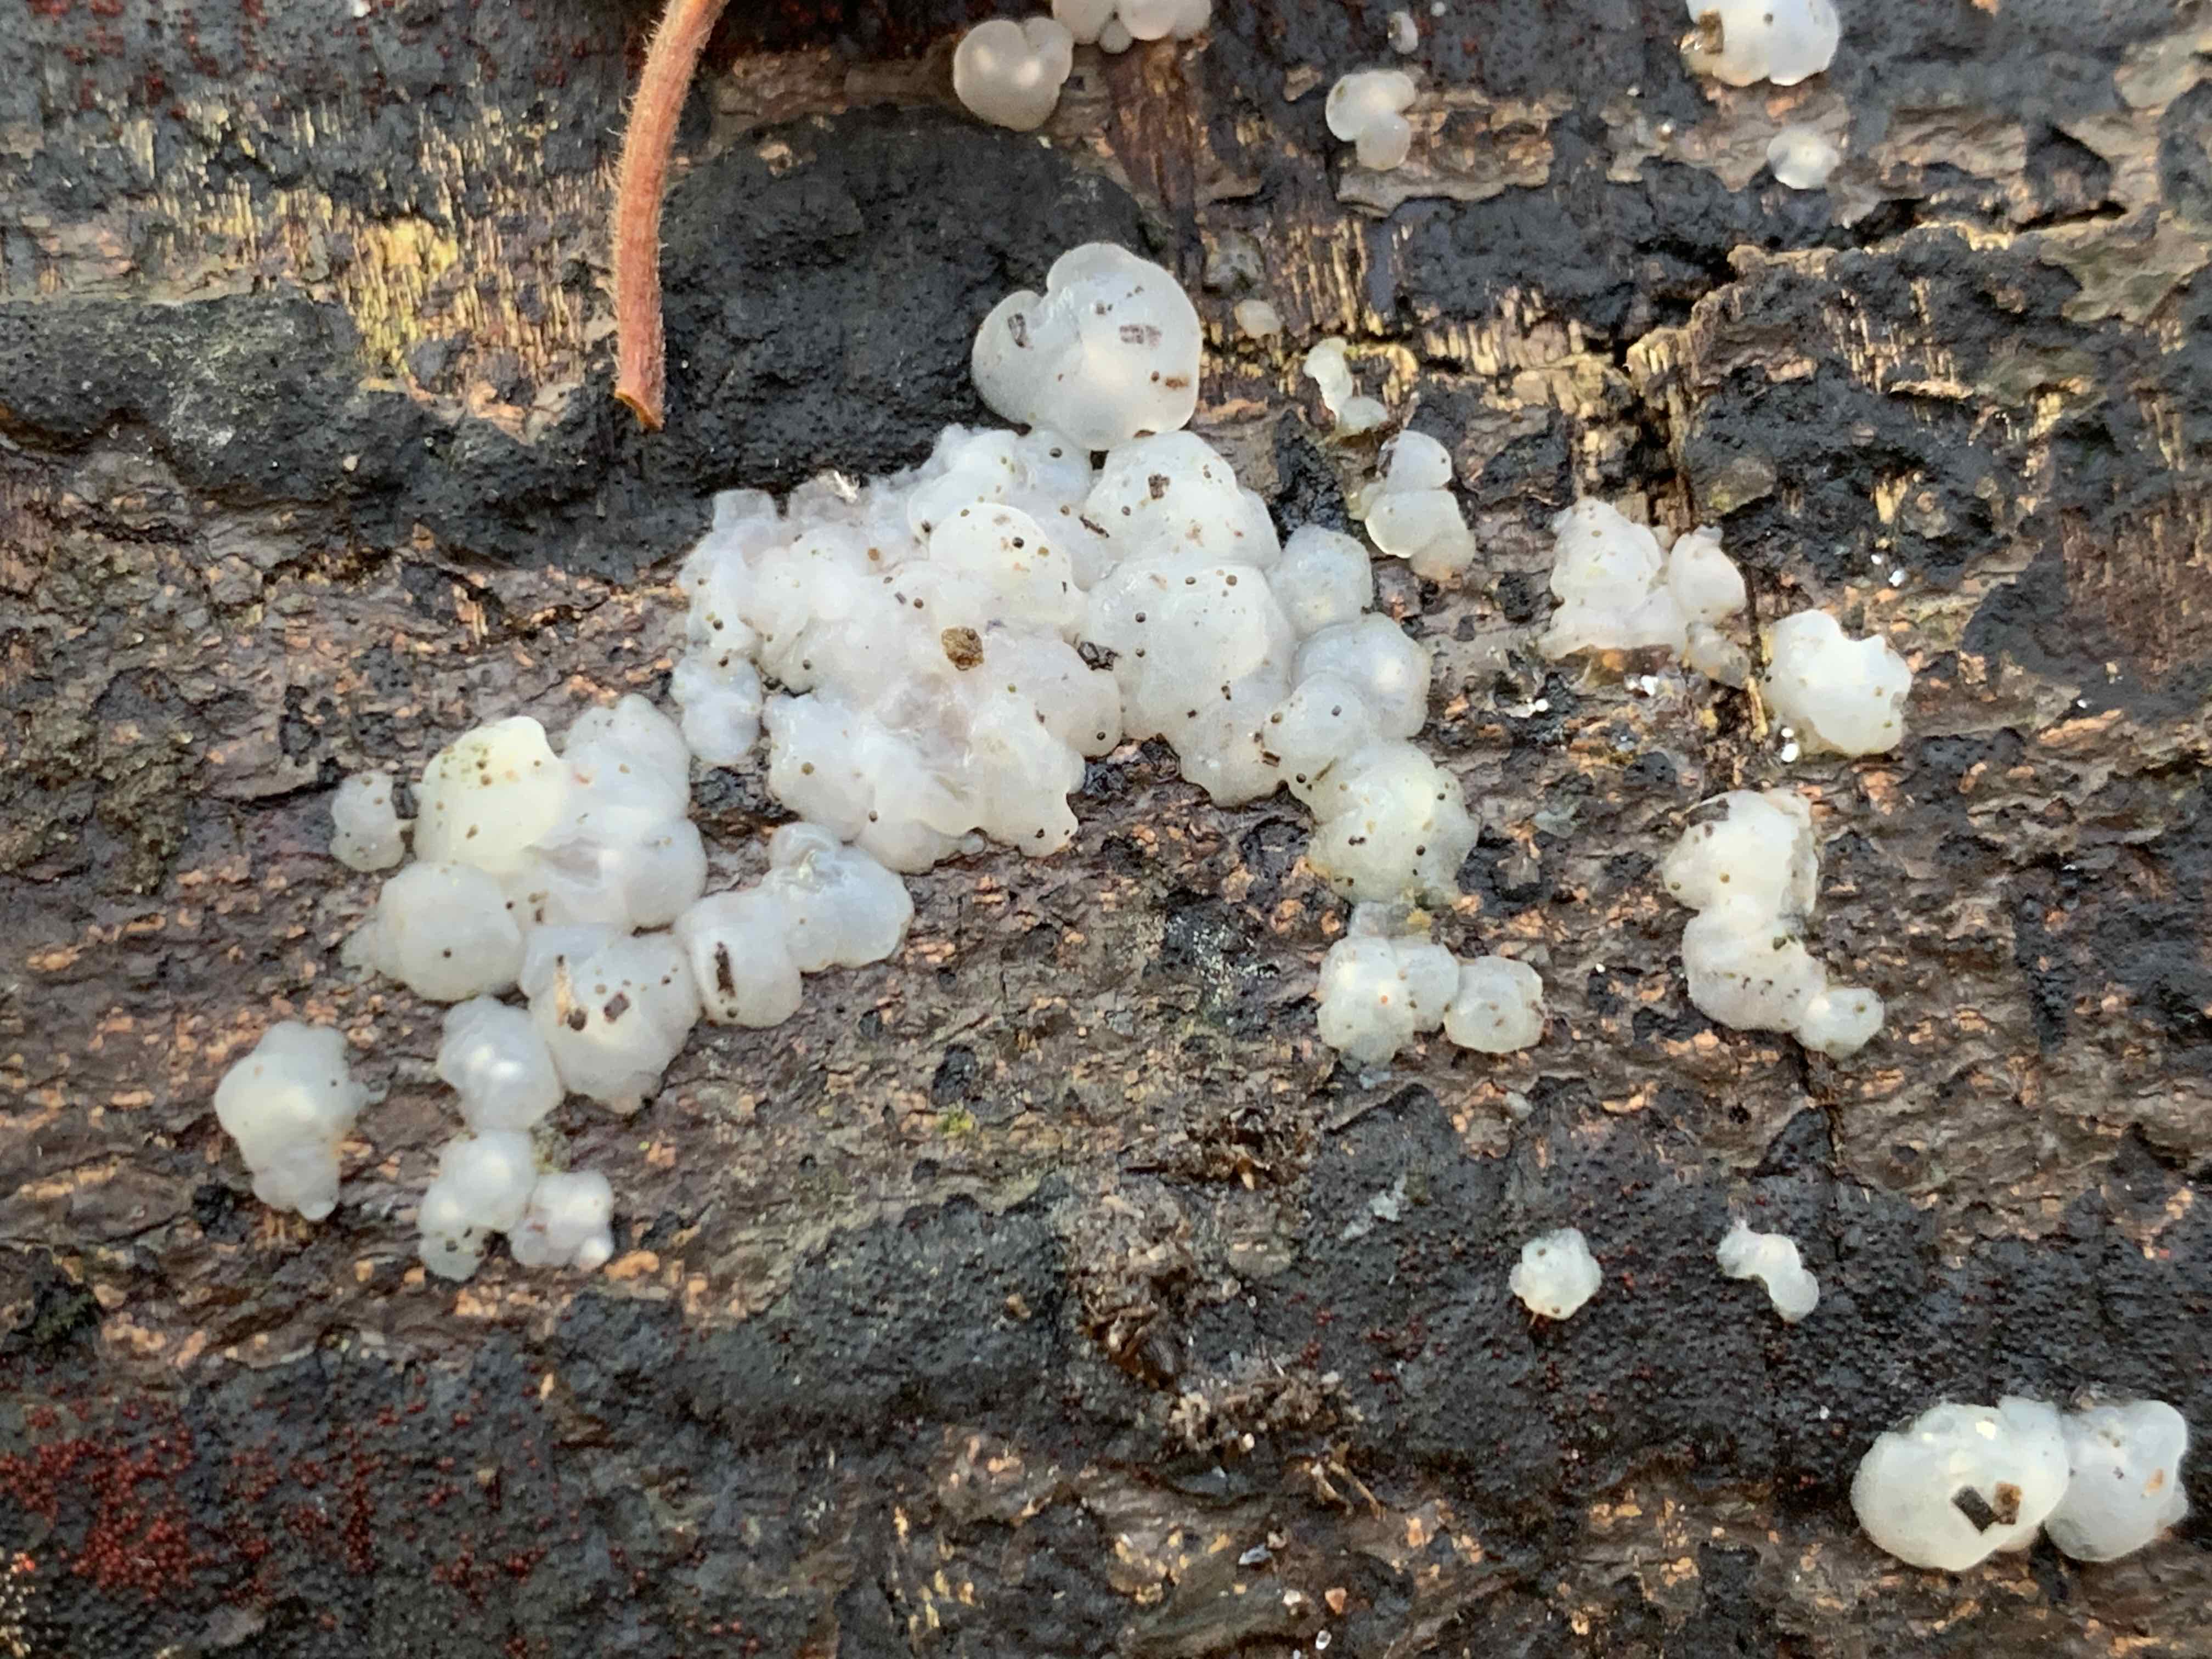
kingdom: Fungi
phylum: Basidiomycota
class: Agaricomycetes
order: Auriculariales
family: Hyaloriaceae
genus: Myxarium
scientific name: Myxarium nucleatum
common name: klar bævretop
